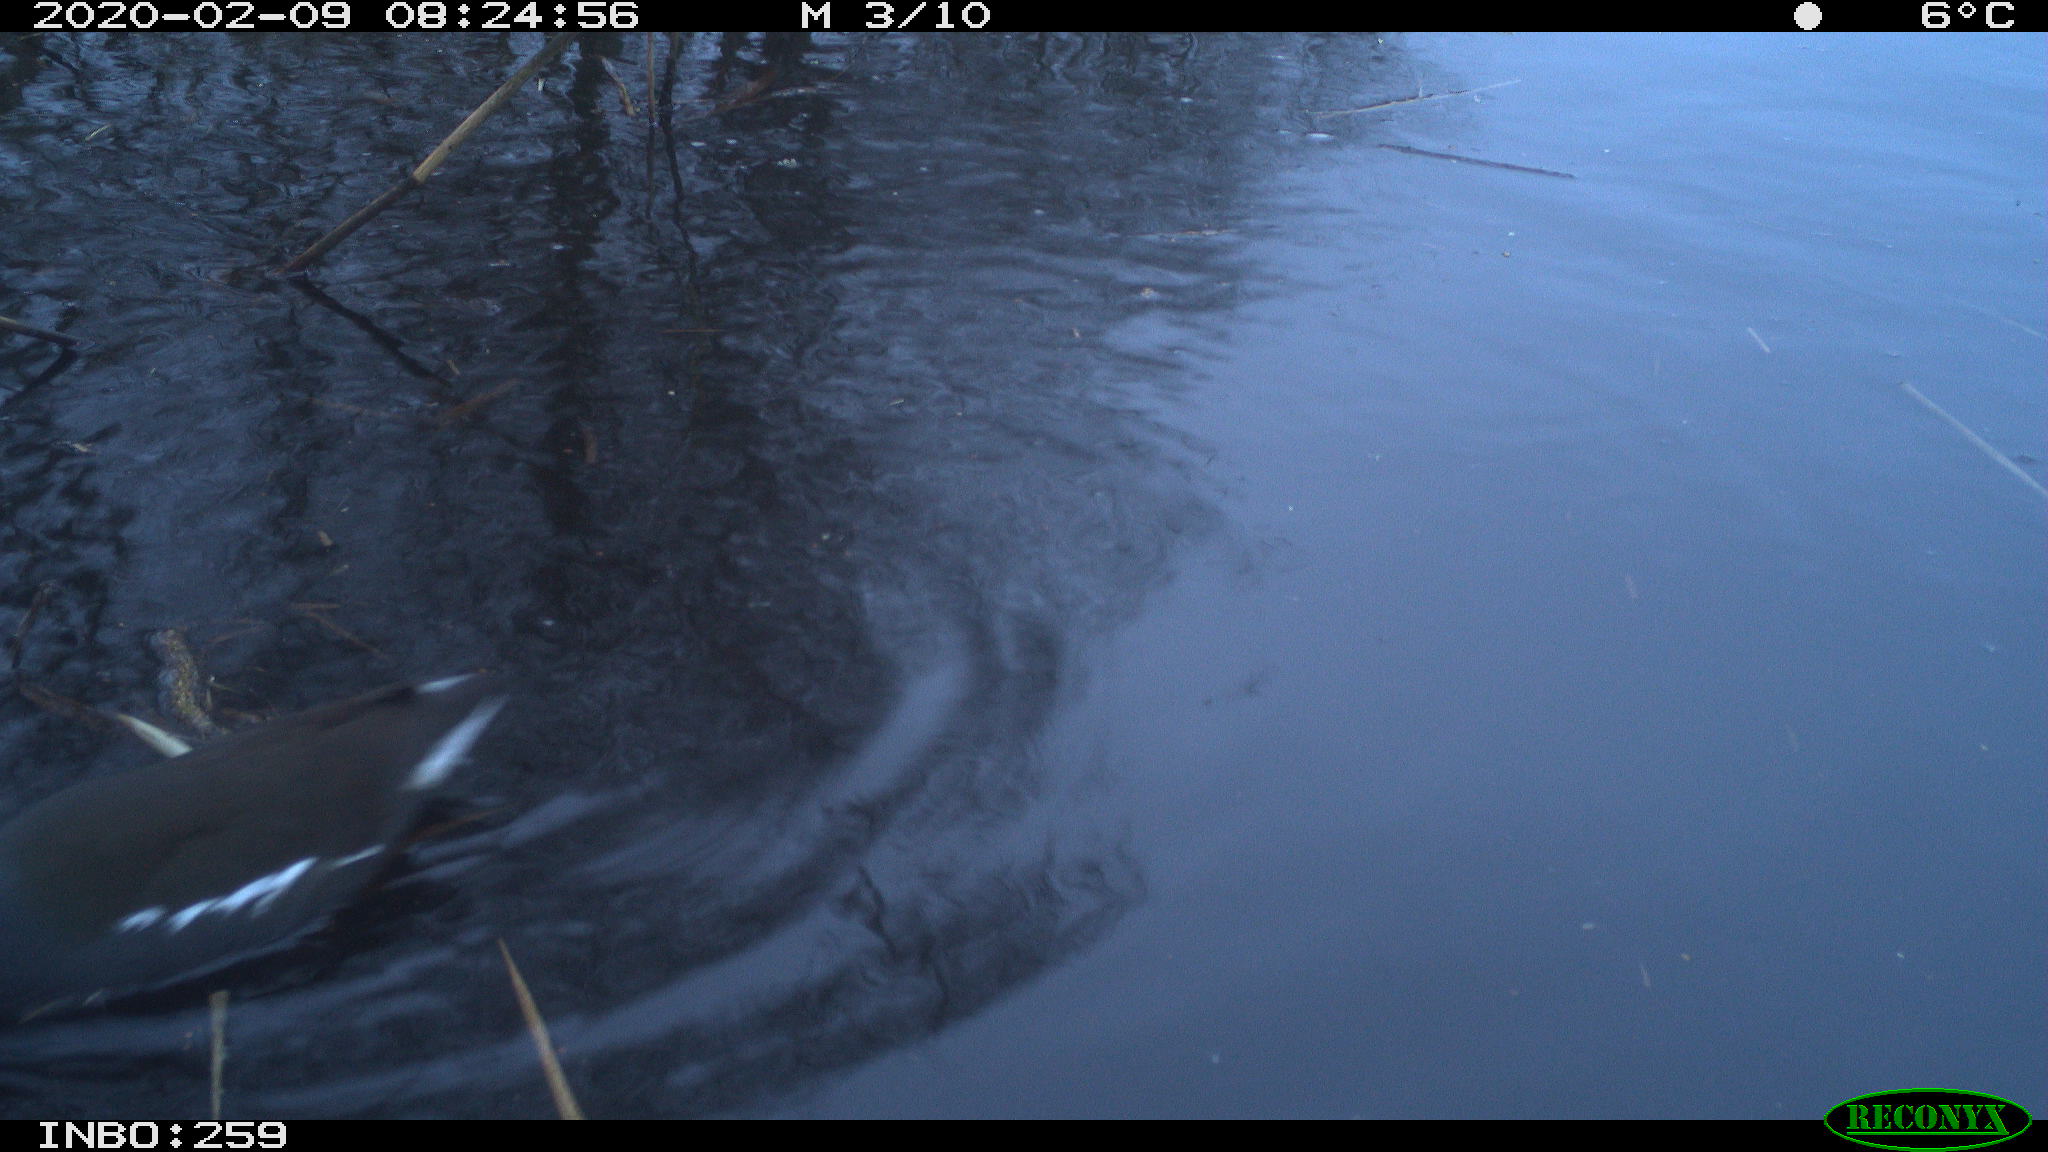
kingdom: Animalia
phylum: Chordata
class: Aves
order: Gruiformes
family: Rallidae
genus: Gallinula
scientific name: Gallinula chloropus
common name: Common moorhen
